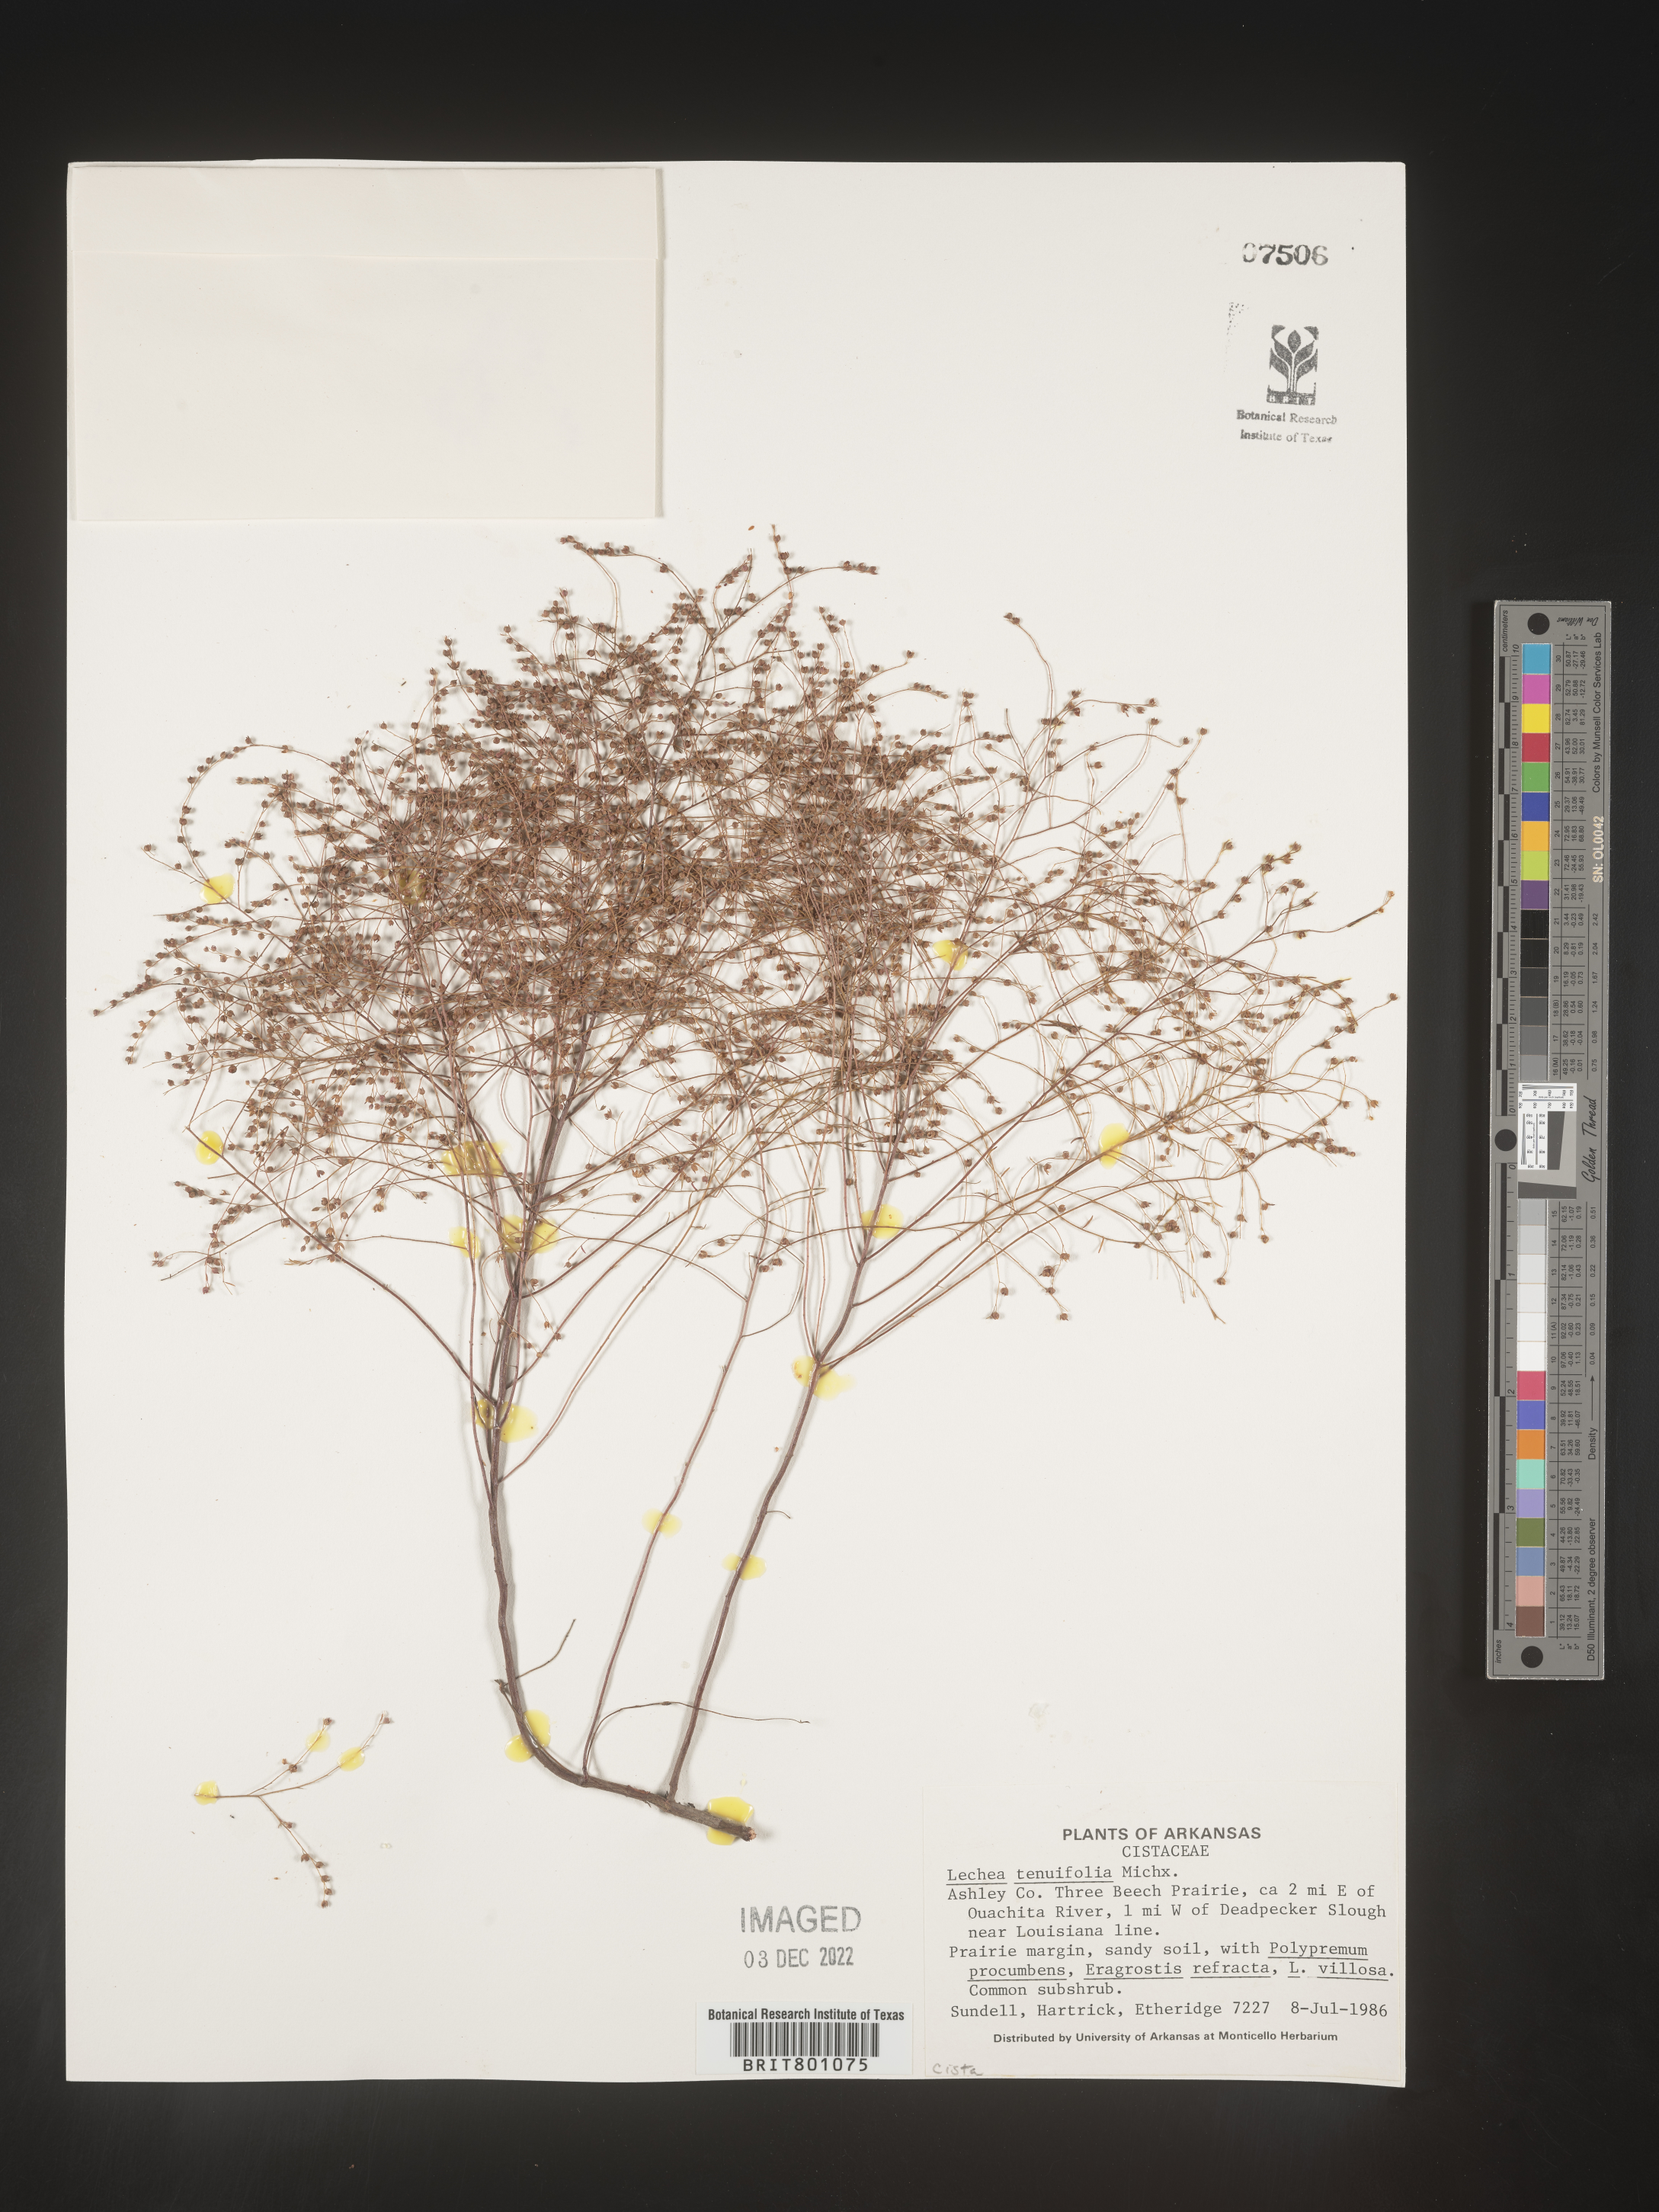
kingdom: Plantae
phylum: Tracheophyta
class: Magnoliopsida
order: Malvales
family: Cistaceae
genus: Lechea
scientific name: Lechea tenuifolia
